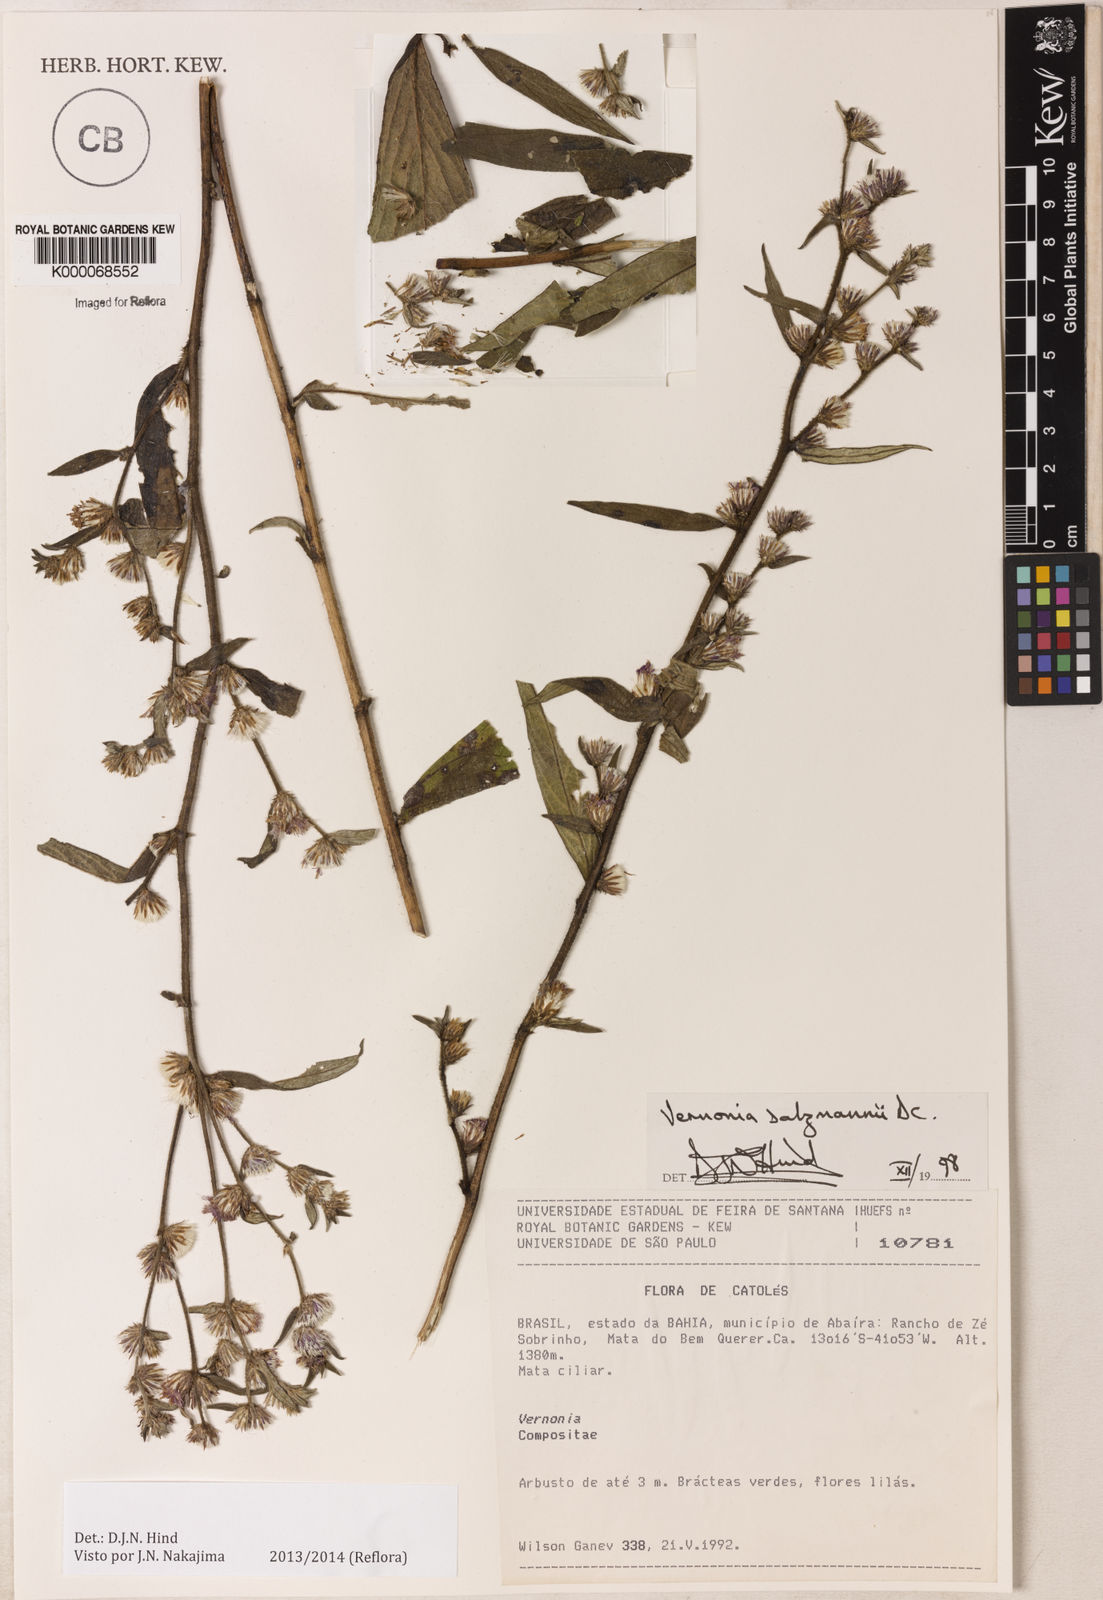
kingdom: Plantae
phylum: Tracheophyta
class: Magnoliopsida
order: Asterales
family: Asteraceae
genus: Lepidaploa
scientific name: Lepidaploa salzmannii
